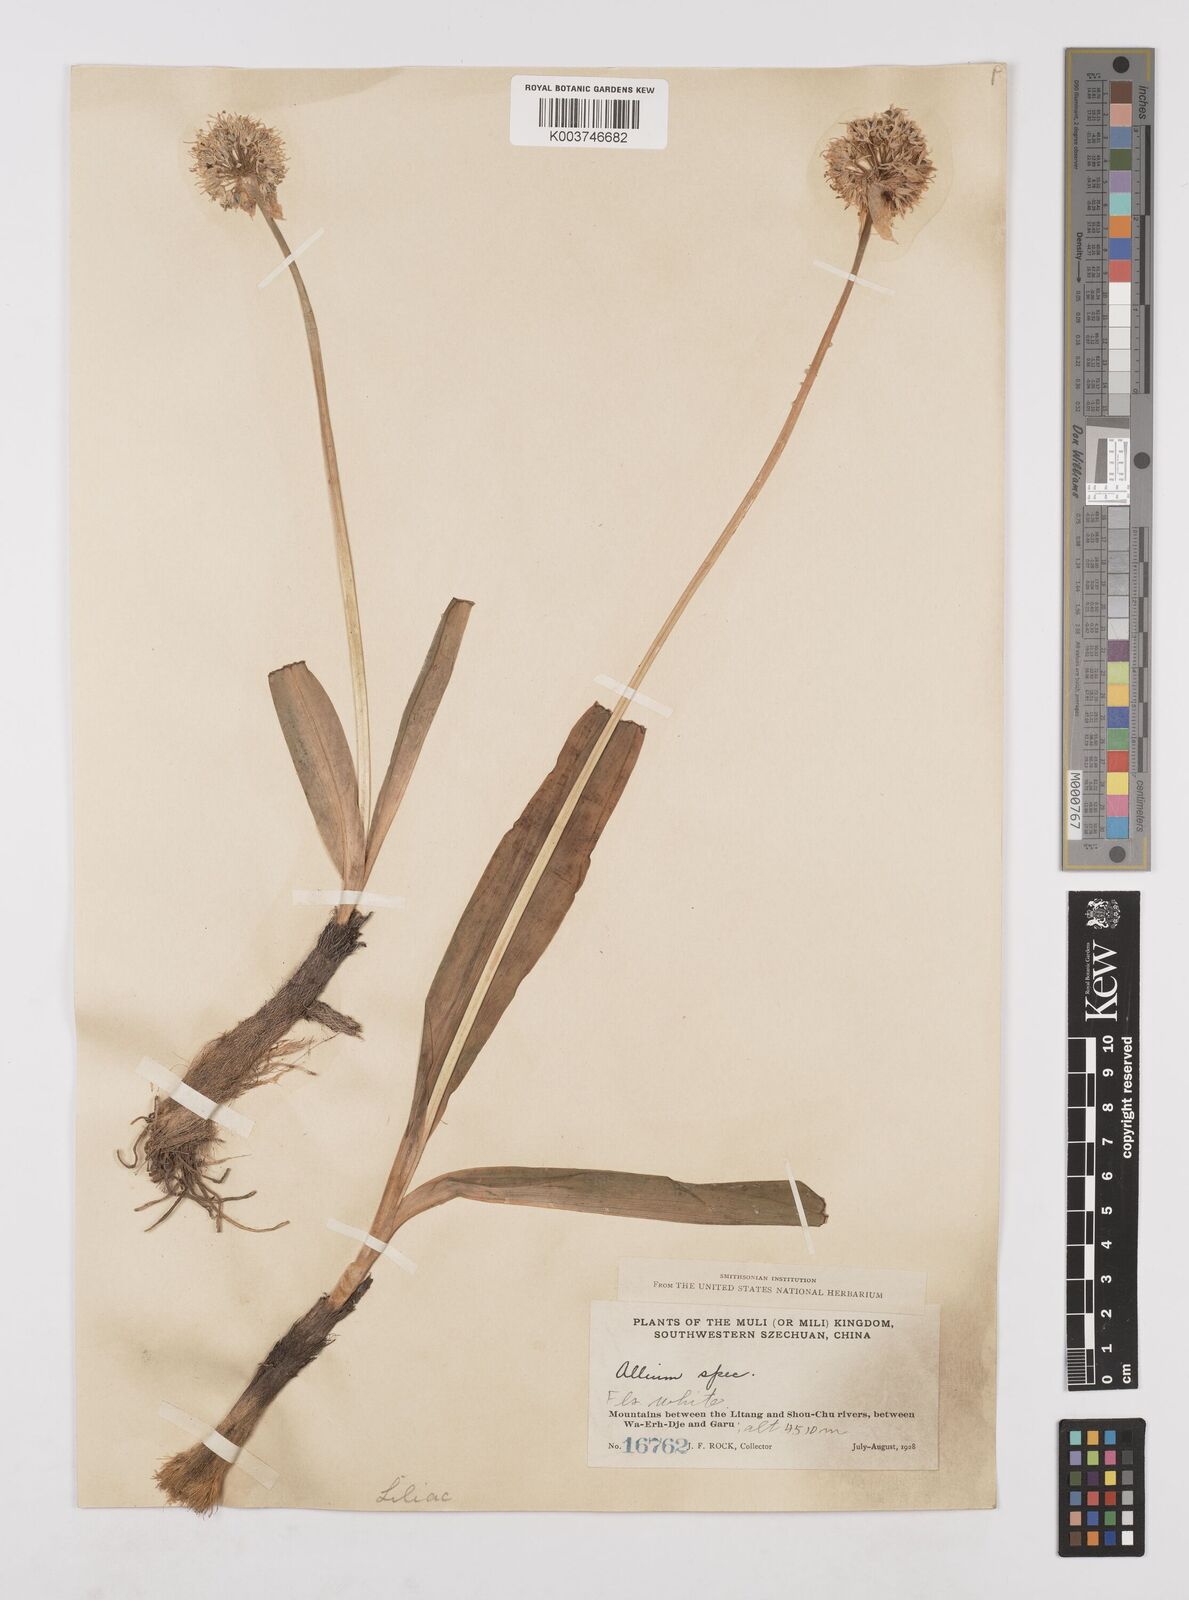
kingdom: Plantae
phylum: Tracheophyta
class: Liliopsida
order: Asparagales
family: Amaryllidaceae
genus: Allium
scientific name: Allium prattii
